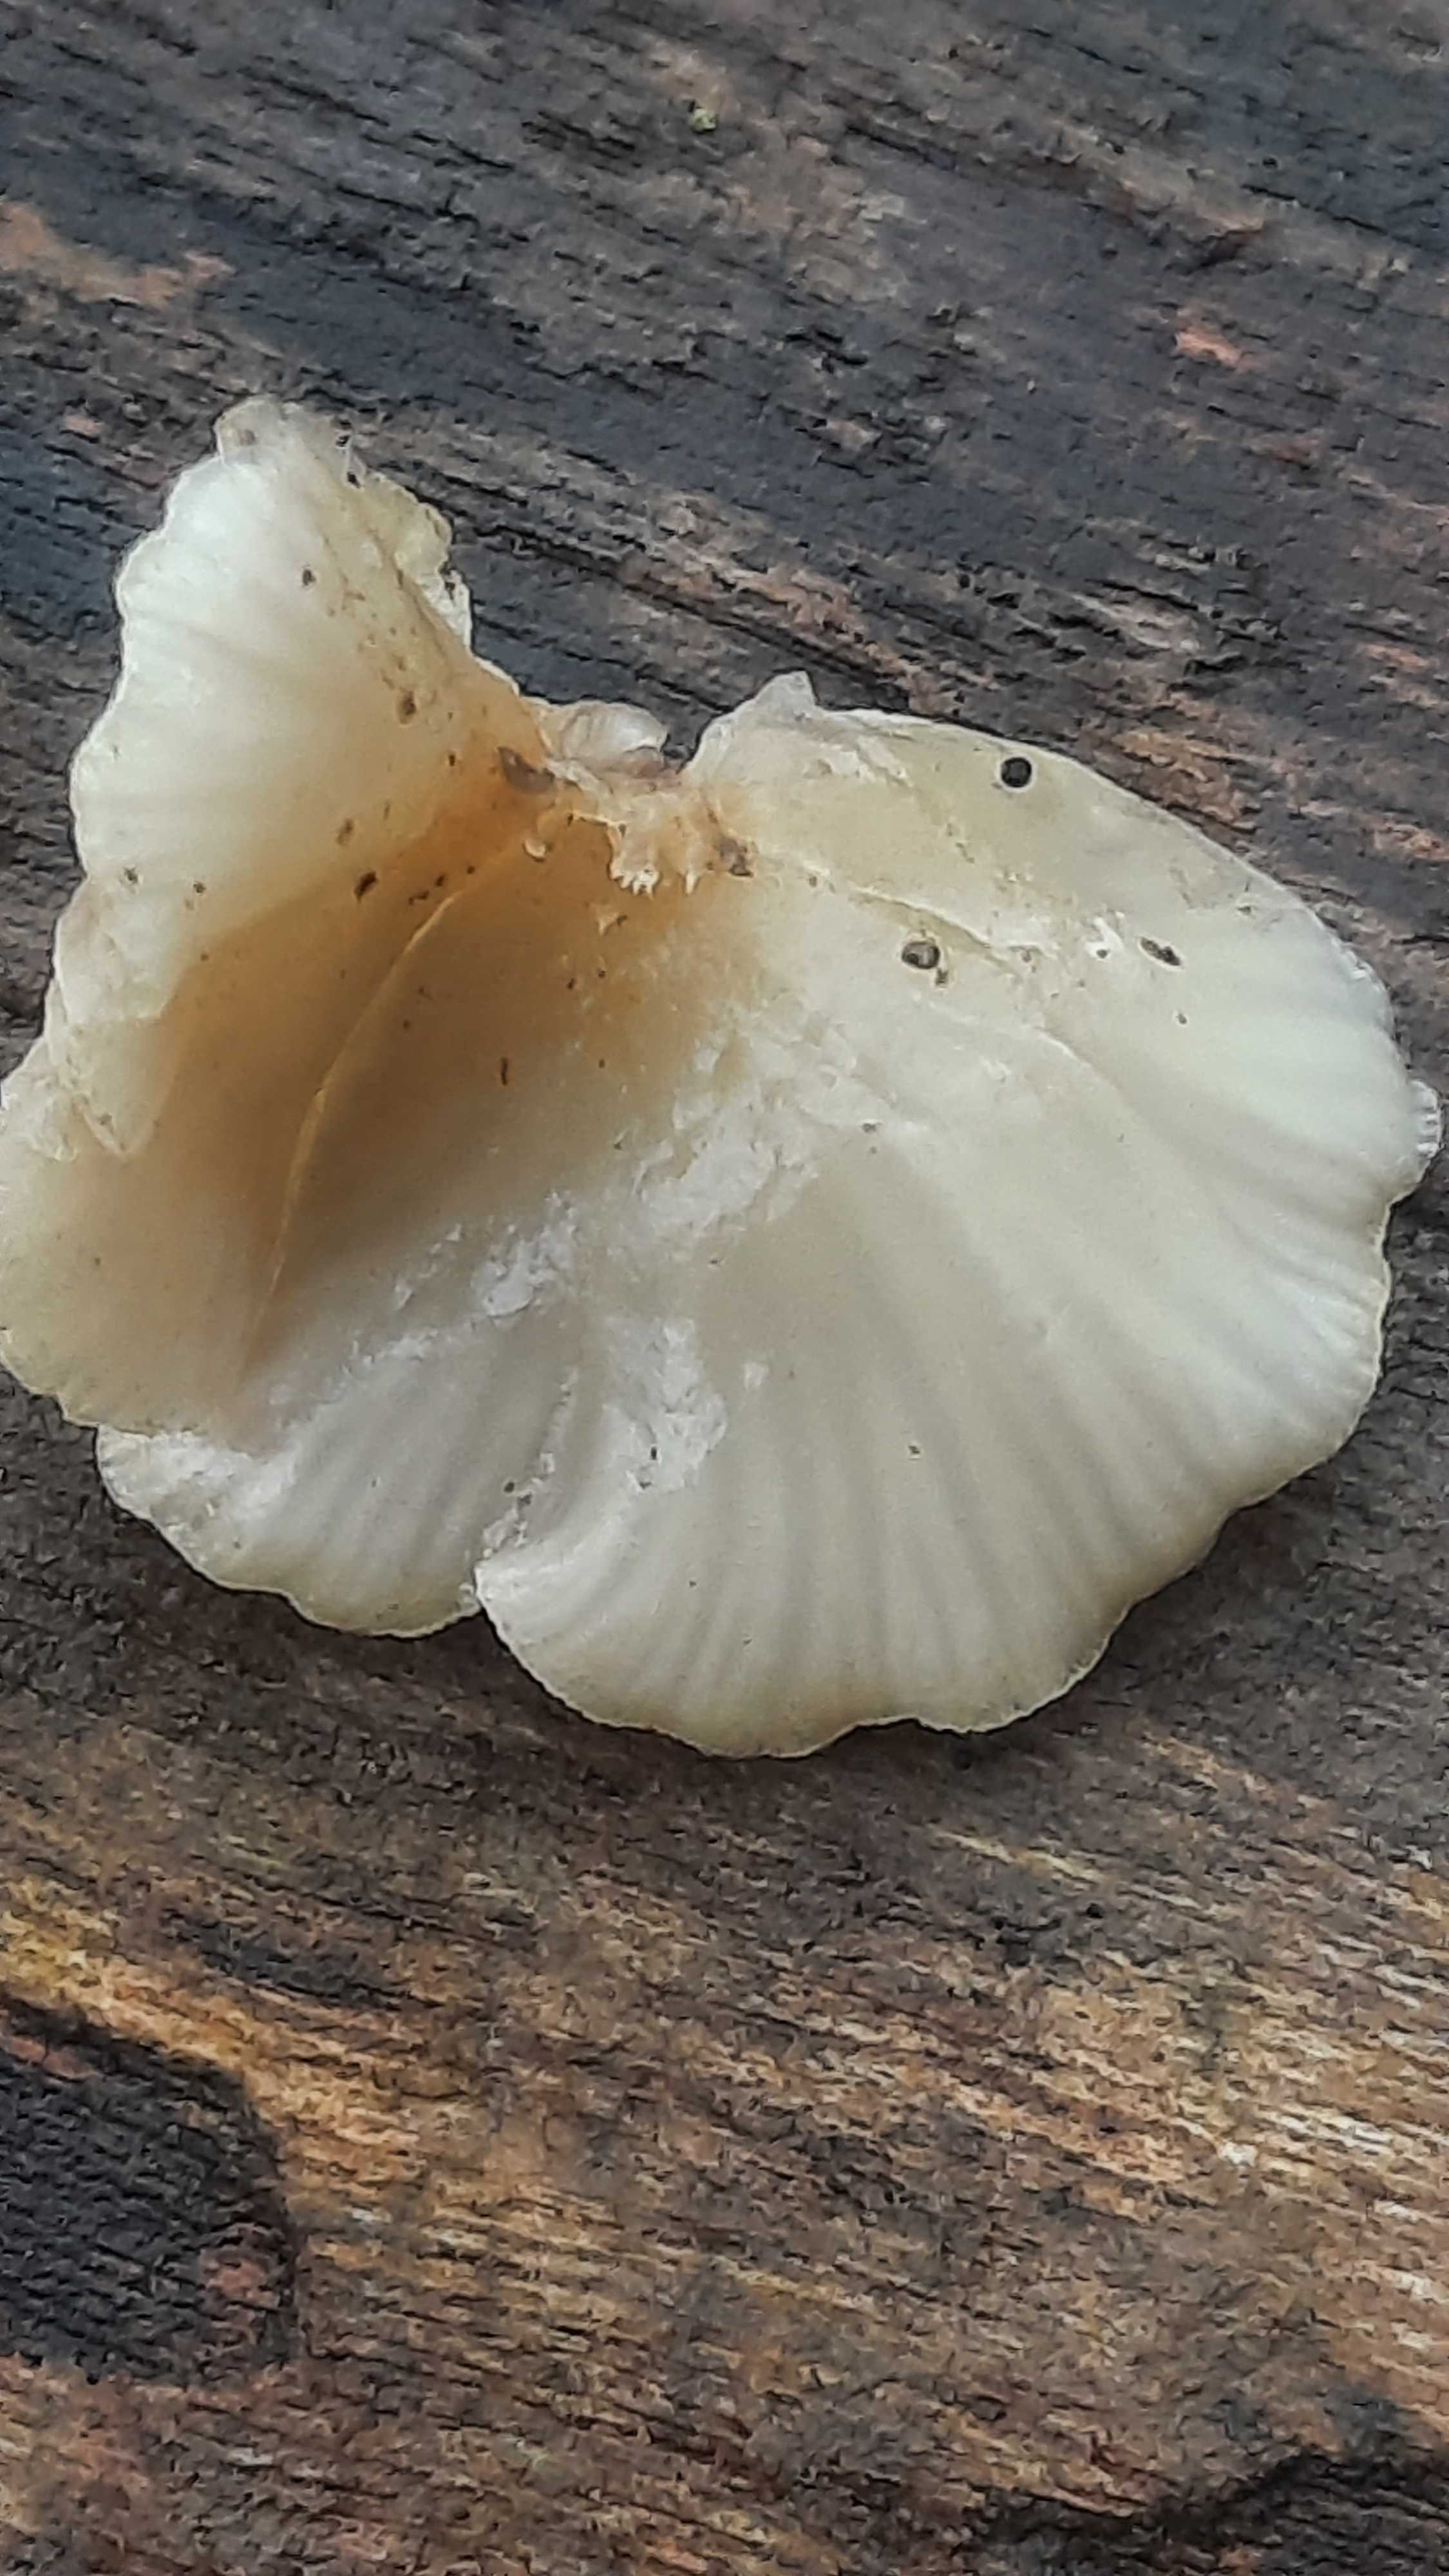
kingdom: Fungi
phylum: Basidiomycota
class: Agaricomycetes
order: Agaricales
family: Crepidotaceae
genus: Crepidotus
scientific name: Crepidotus mollis
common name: blød muslingesvamp
